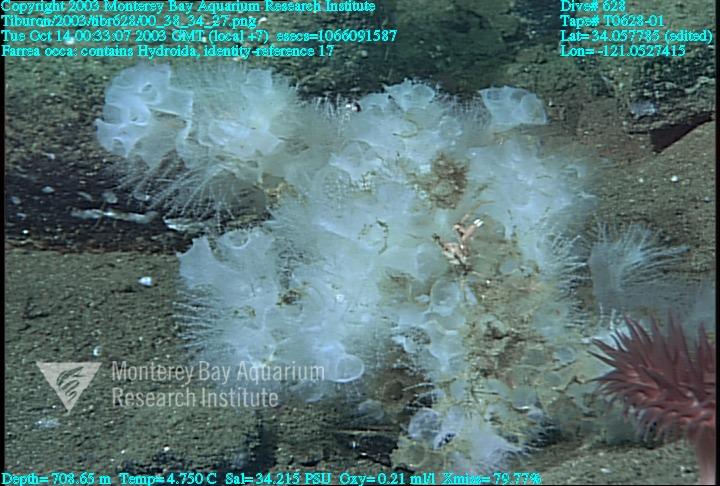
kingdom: Animalia
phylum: Porifera
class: Hexactinellida
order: Sceptrulophora
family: Farreidae
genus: Farrea
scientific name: Farrea occa
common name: Reversed glass sponge
